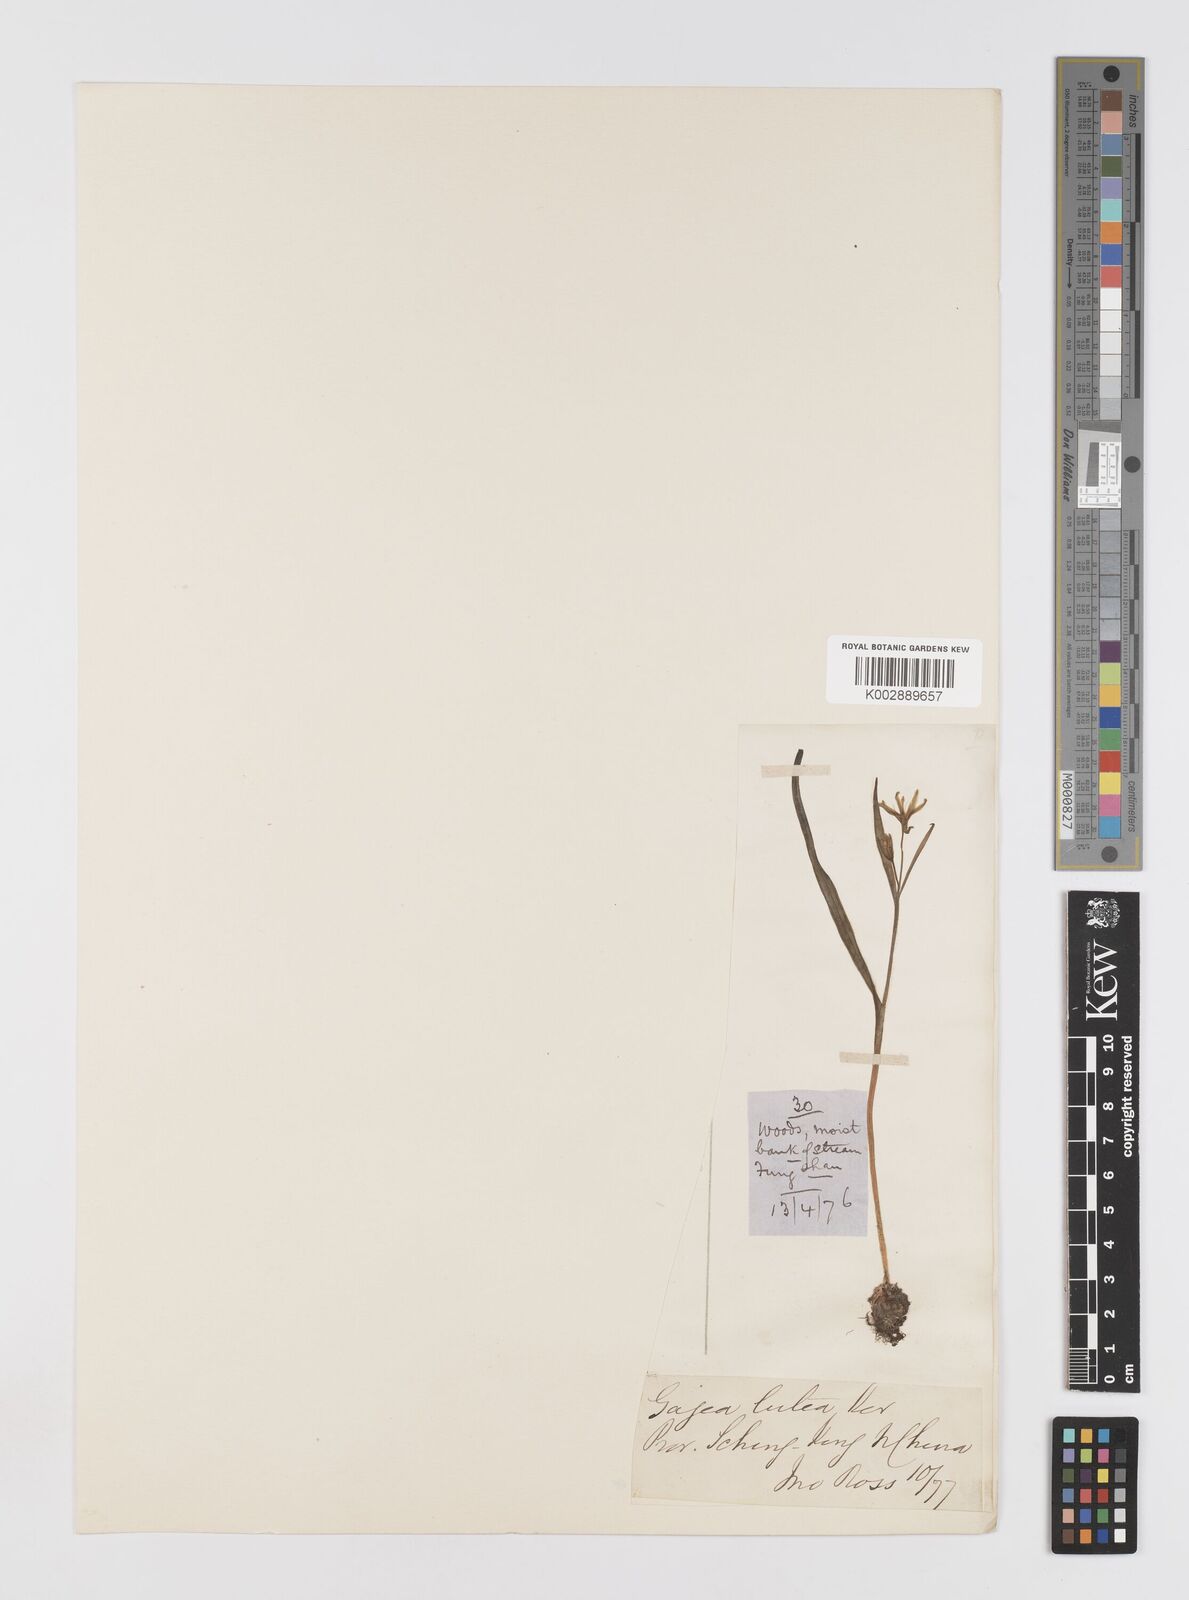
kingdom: Plantae
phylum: Tracheophyta
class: Liliopsida
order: Liliales
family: Liliaceae
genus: Gagea
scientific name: Gagea lutea
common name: Yellow star-of-bethlehem
